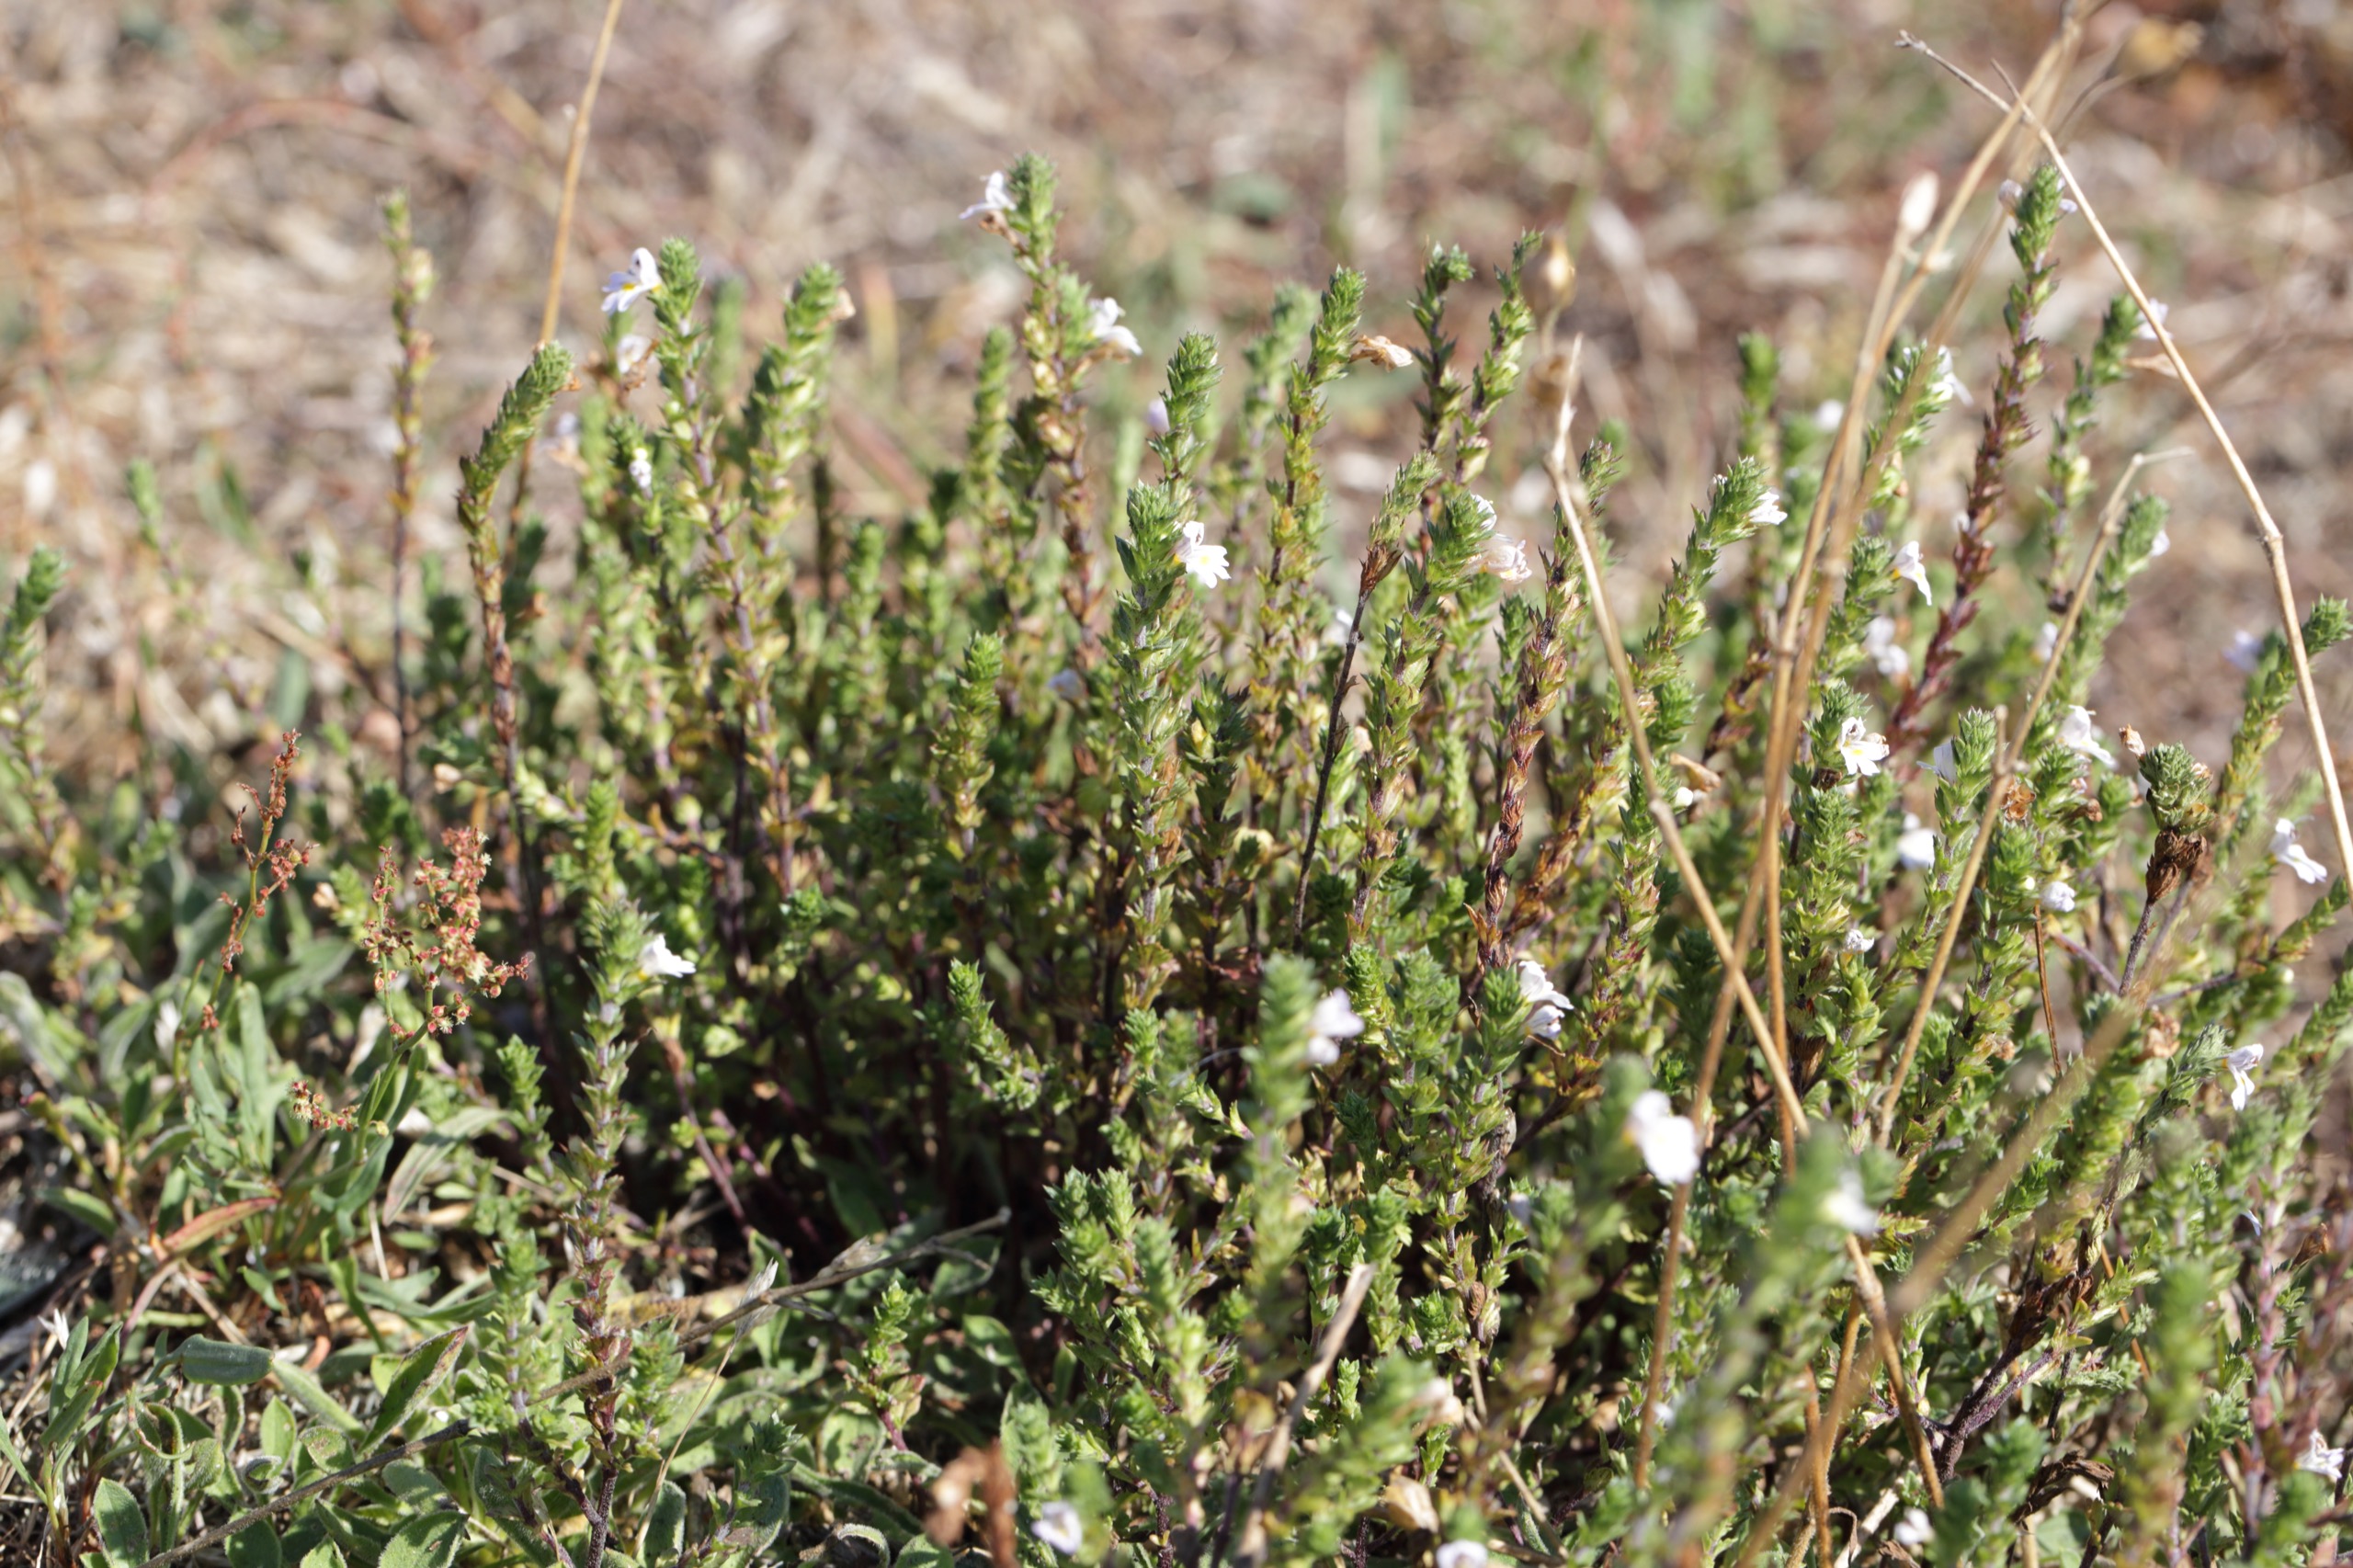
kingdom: Plantae
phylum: Tracheophyta
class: Magnoliopsida
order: Lamiales
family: Orobanchaceae
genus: Euphrasia
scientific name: Euphrasia stricta
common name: Spids øjentrøst
